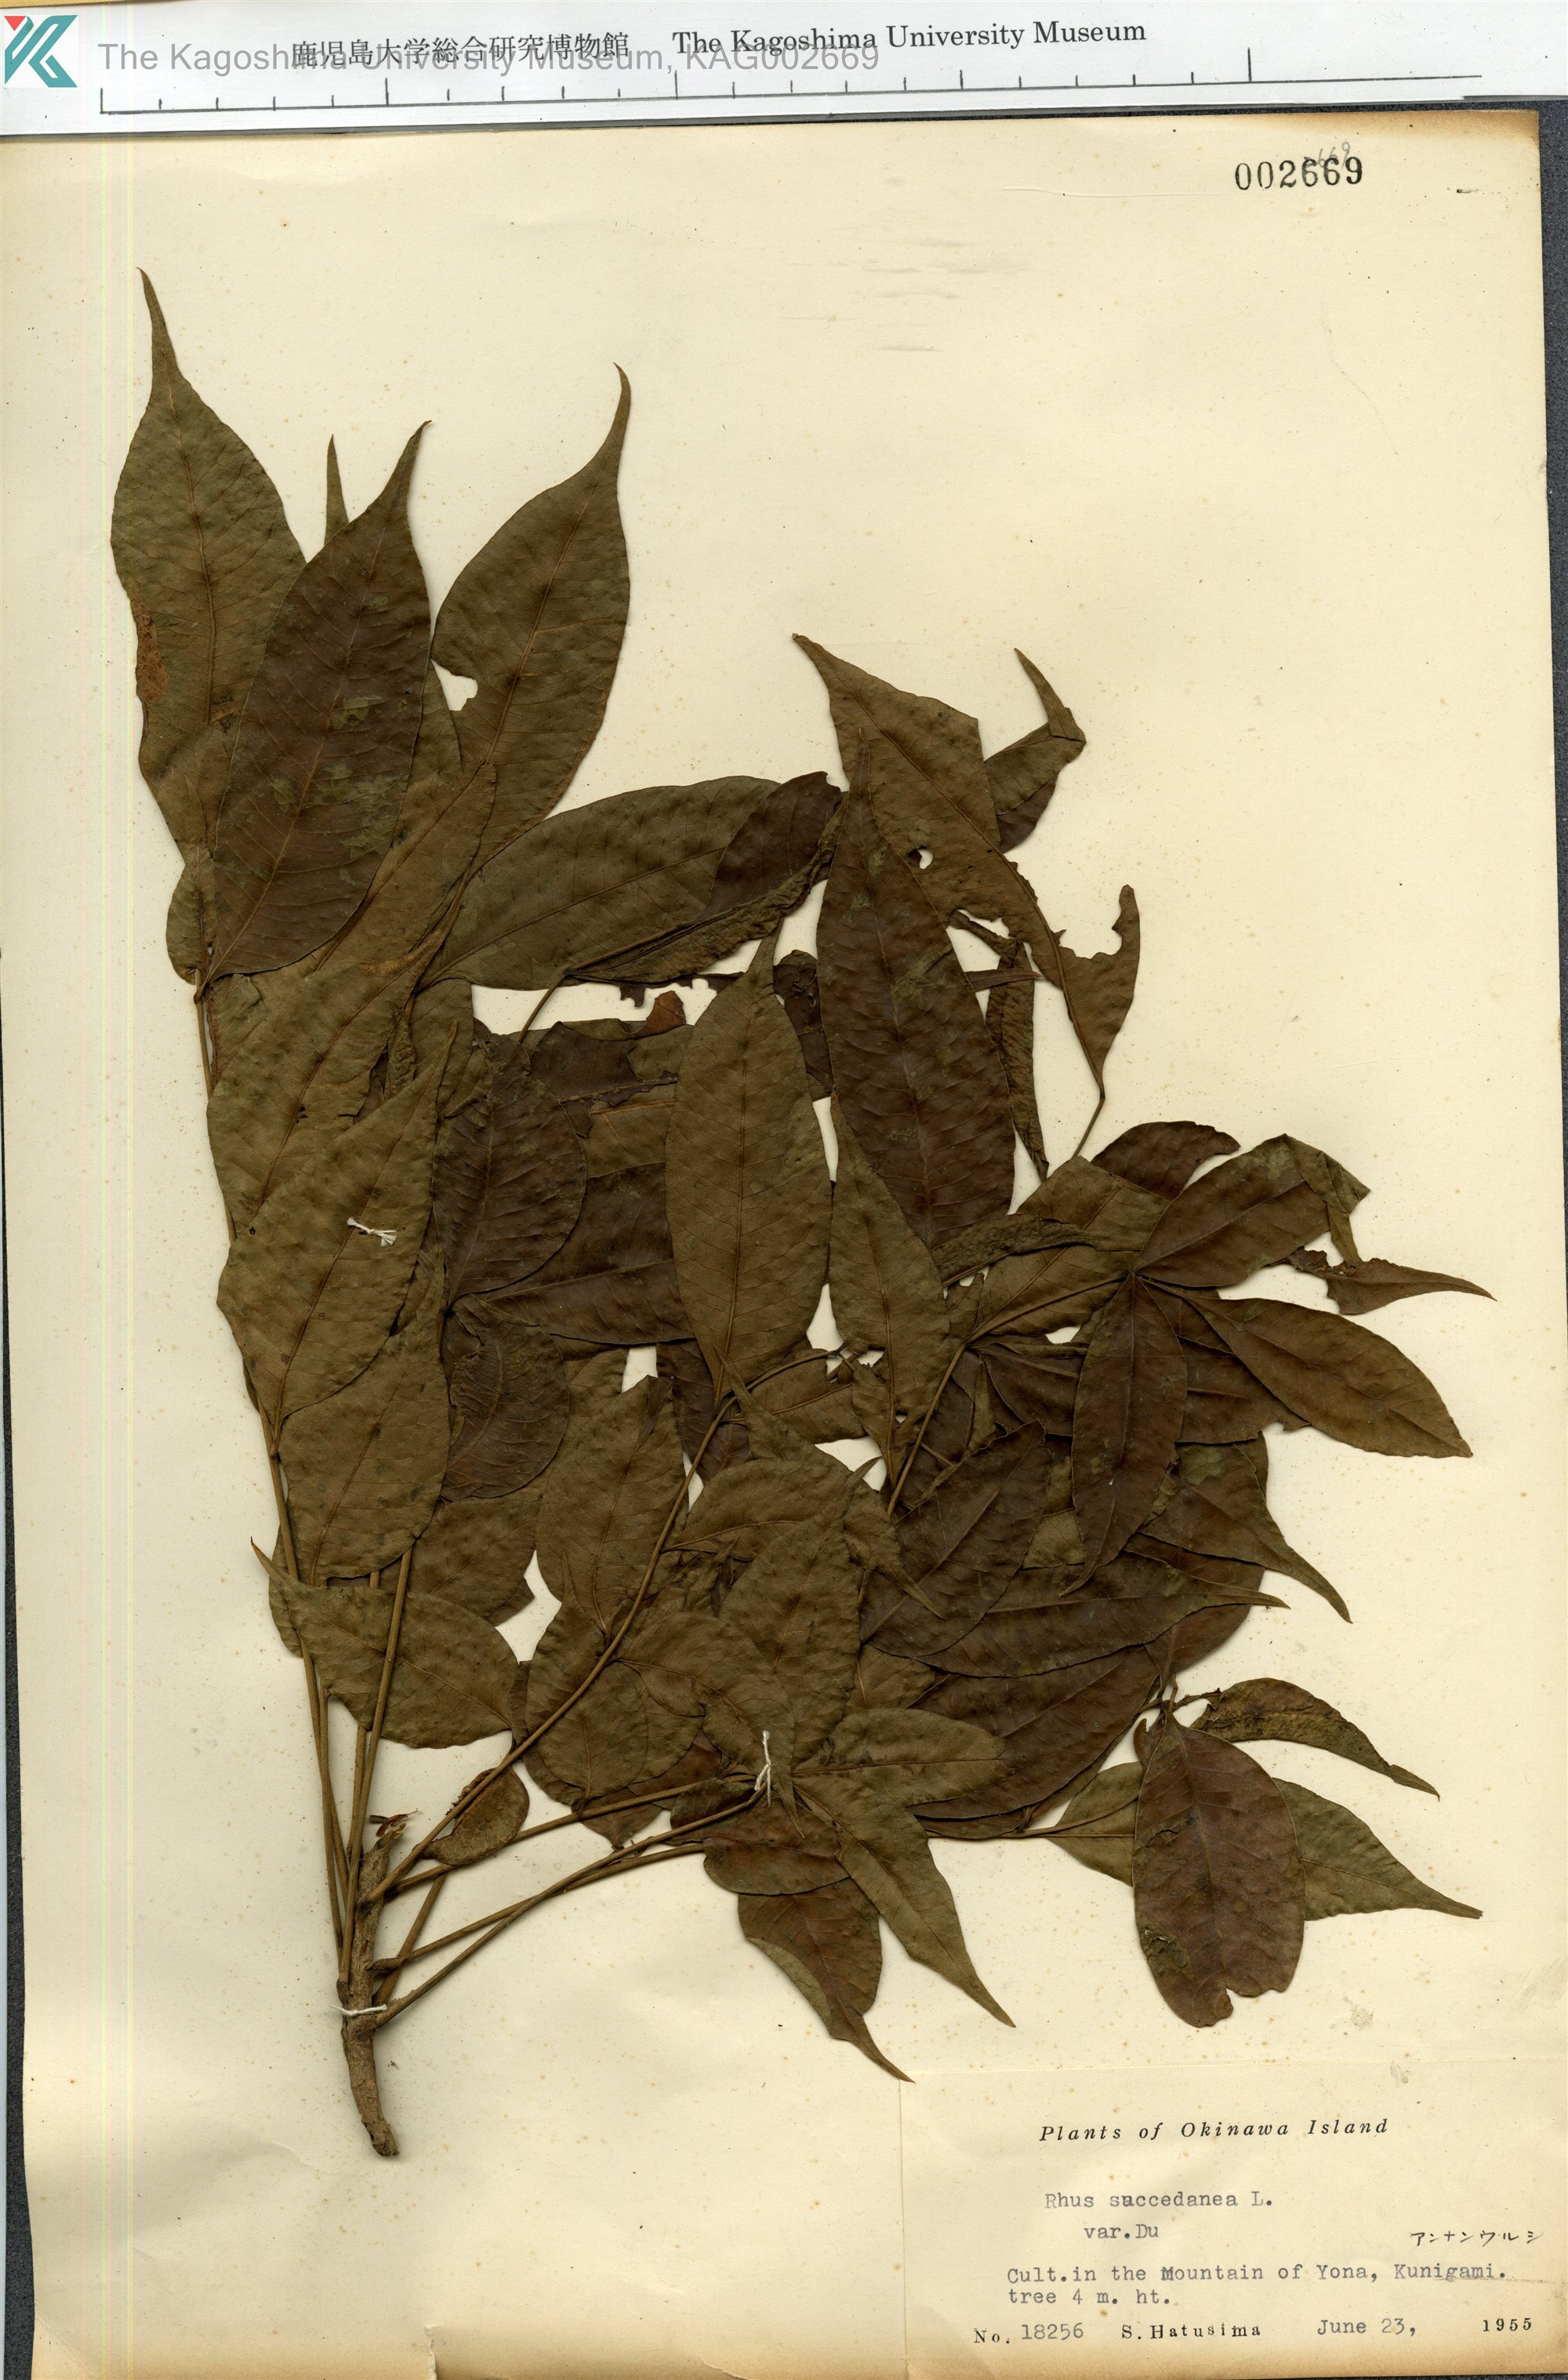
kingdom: Plantae
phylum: Tracheophyta
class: Magnoliopsida
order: Sapindales
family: Anacardiaceae
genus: Toxicodendron
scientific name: Toxicodendron succedaneum
